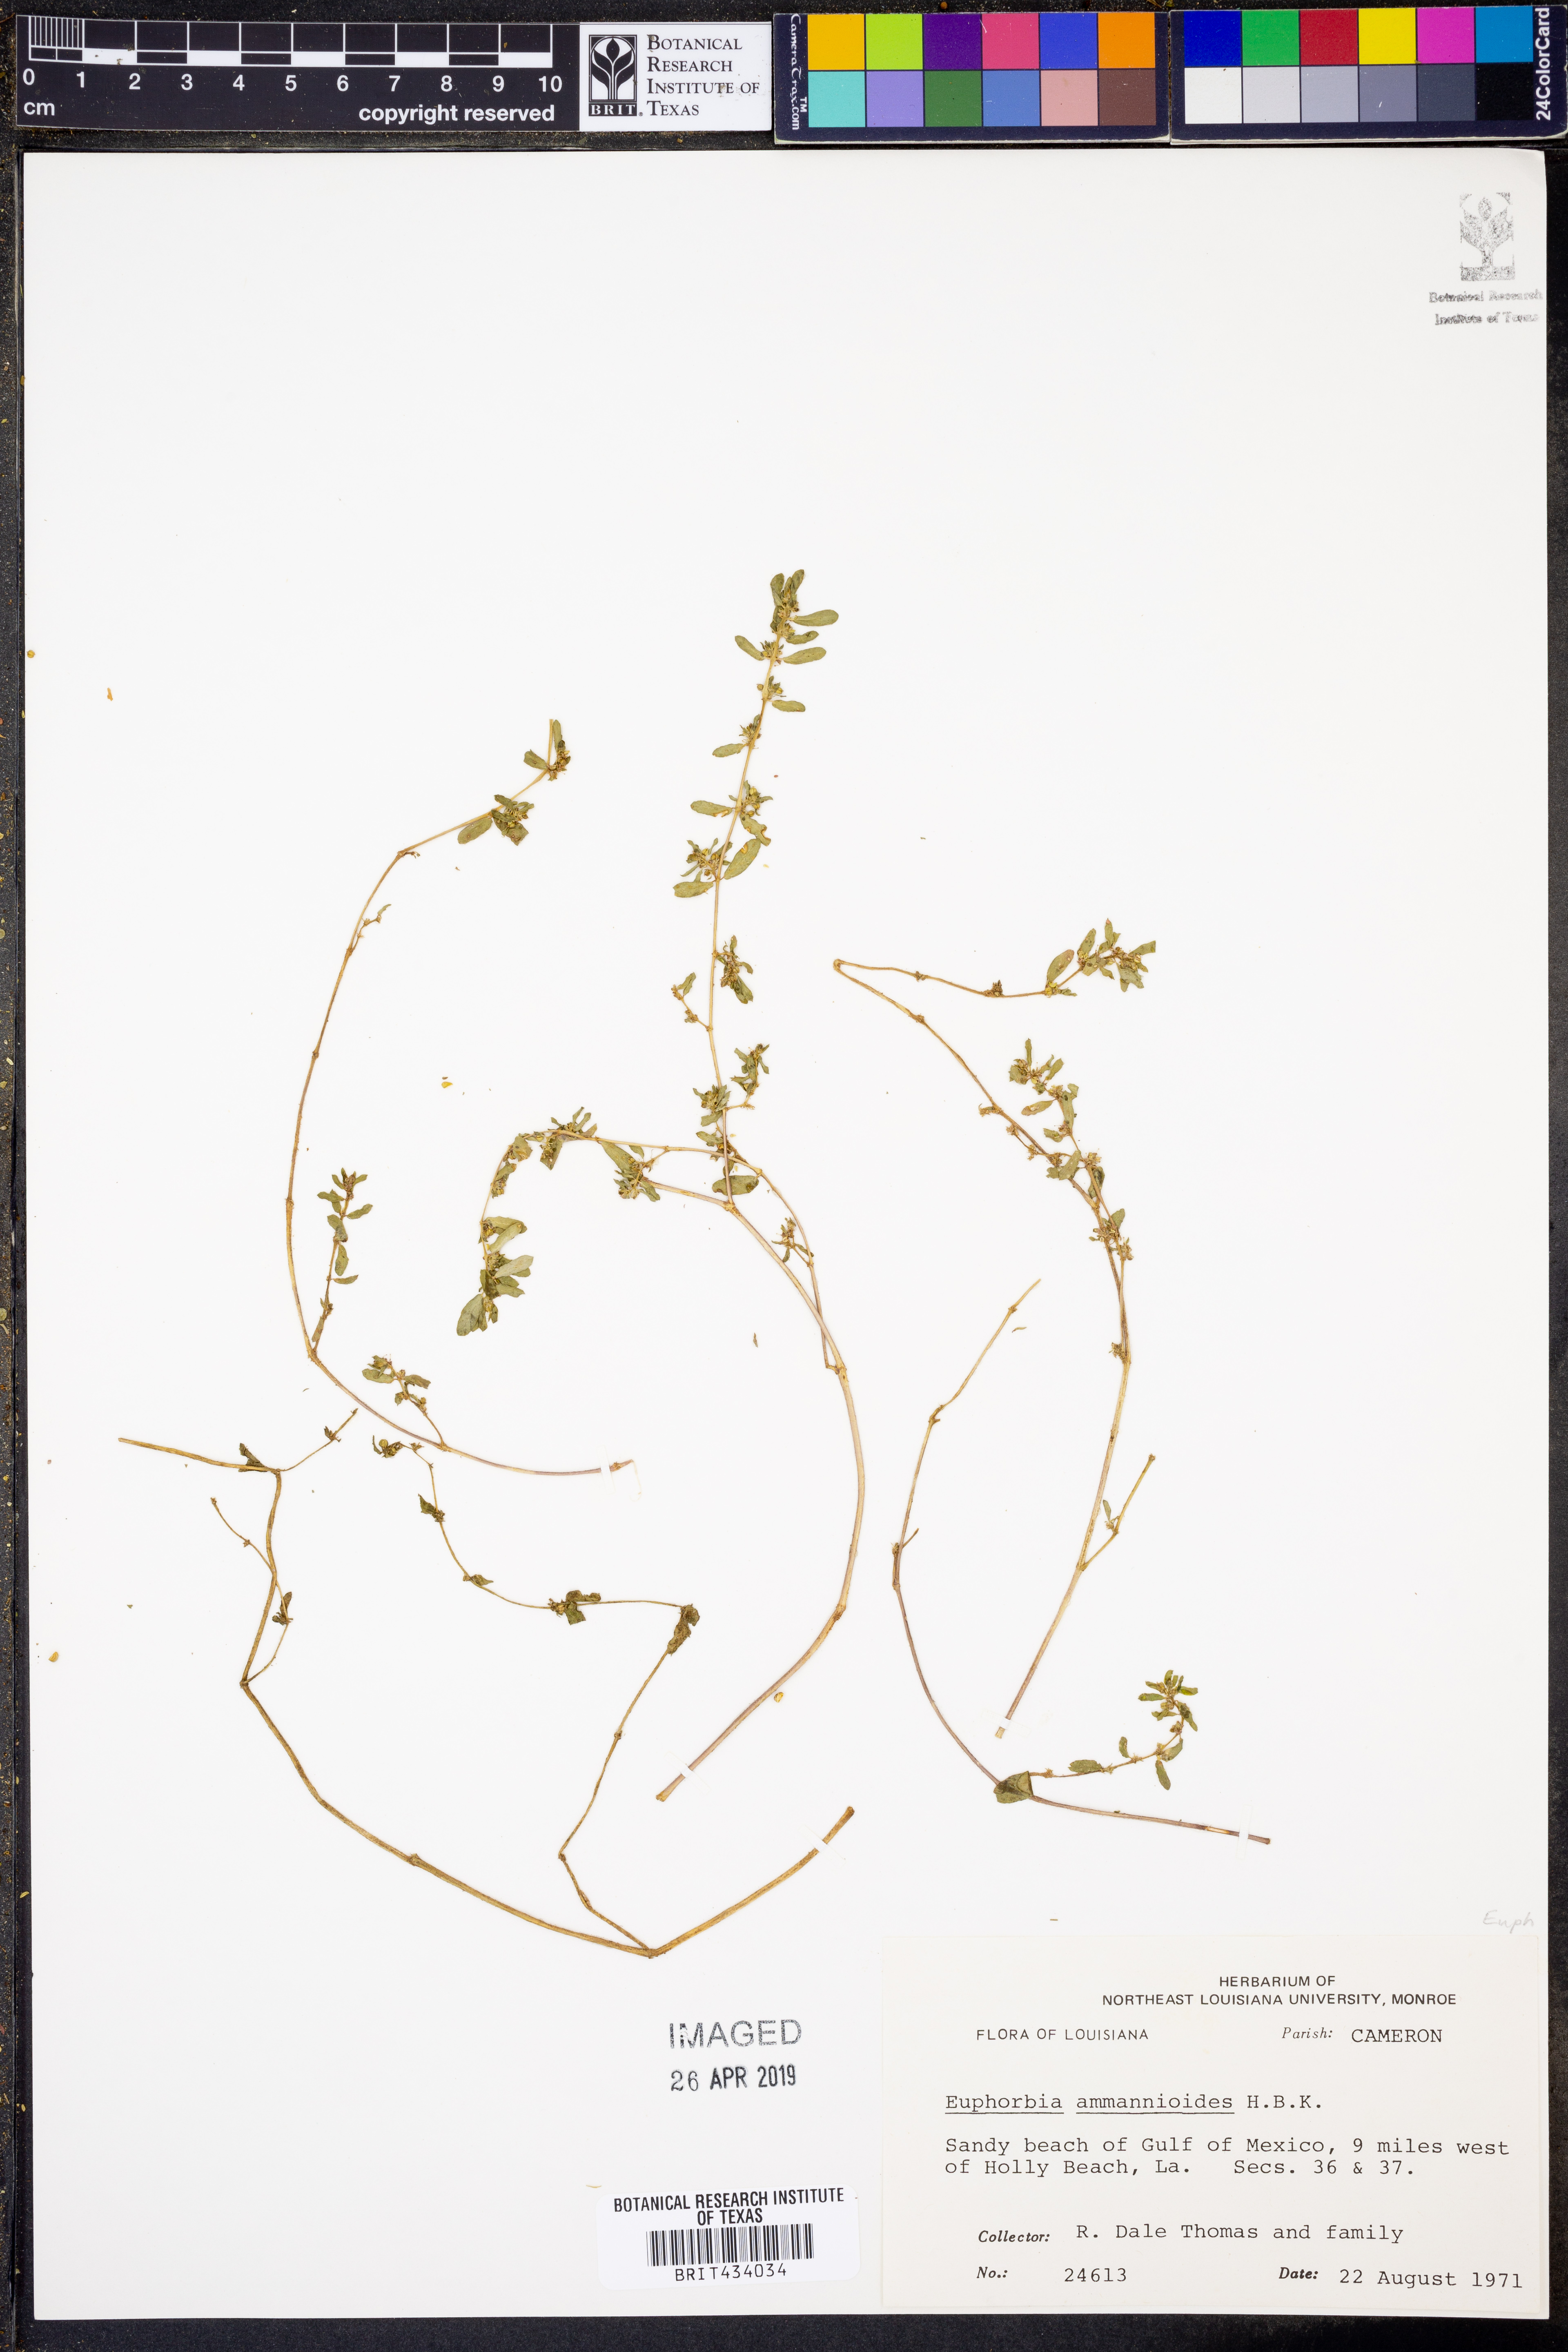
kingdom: Plantae
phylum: Tracheophyta
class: Magnoliopsida
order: Malpighiales
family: Euphorbiaceae
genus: Euphorbia
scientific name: Euphorbia bombensis
